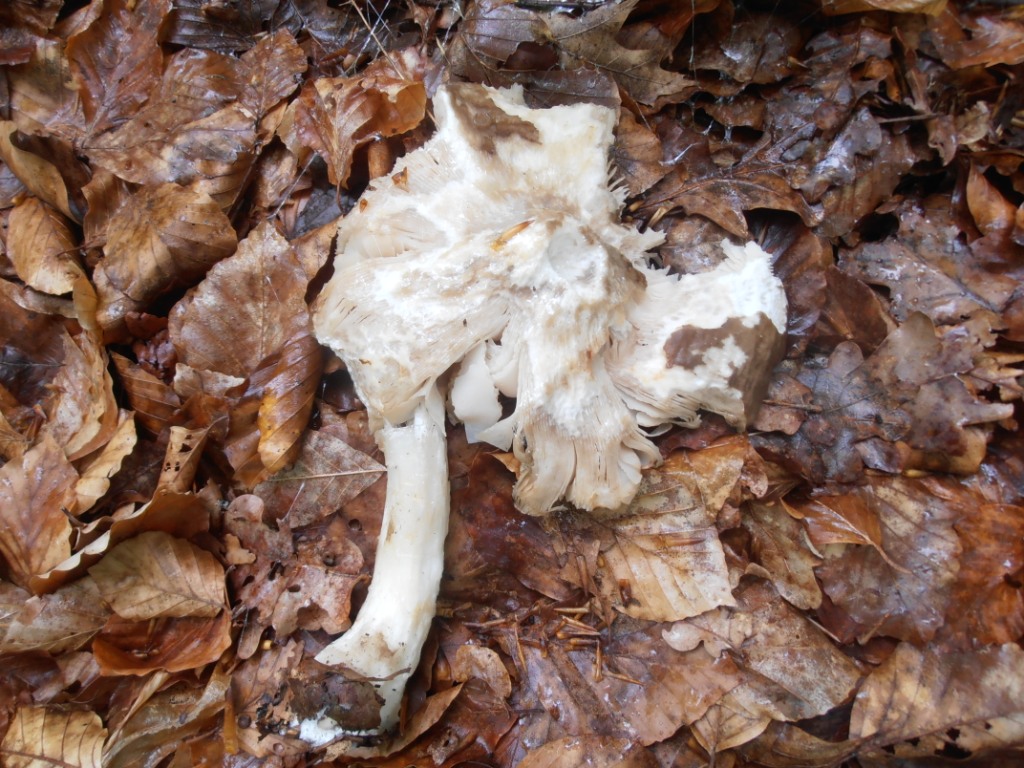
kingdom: Fungi
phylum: Basidiomycota
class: Agaricomycetes
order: Agaricales
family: Pluteaceae
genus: Pluteus
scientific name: Pluteus cervinus
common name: sodfarvet skærmhat
